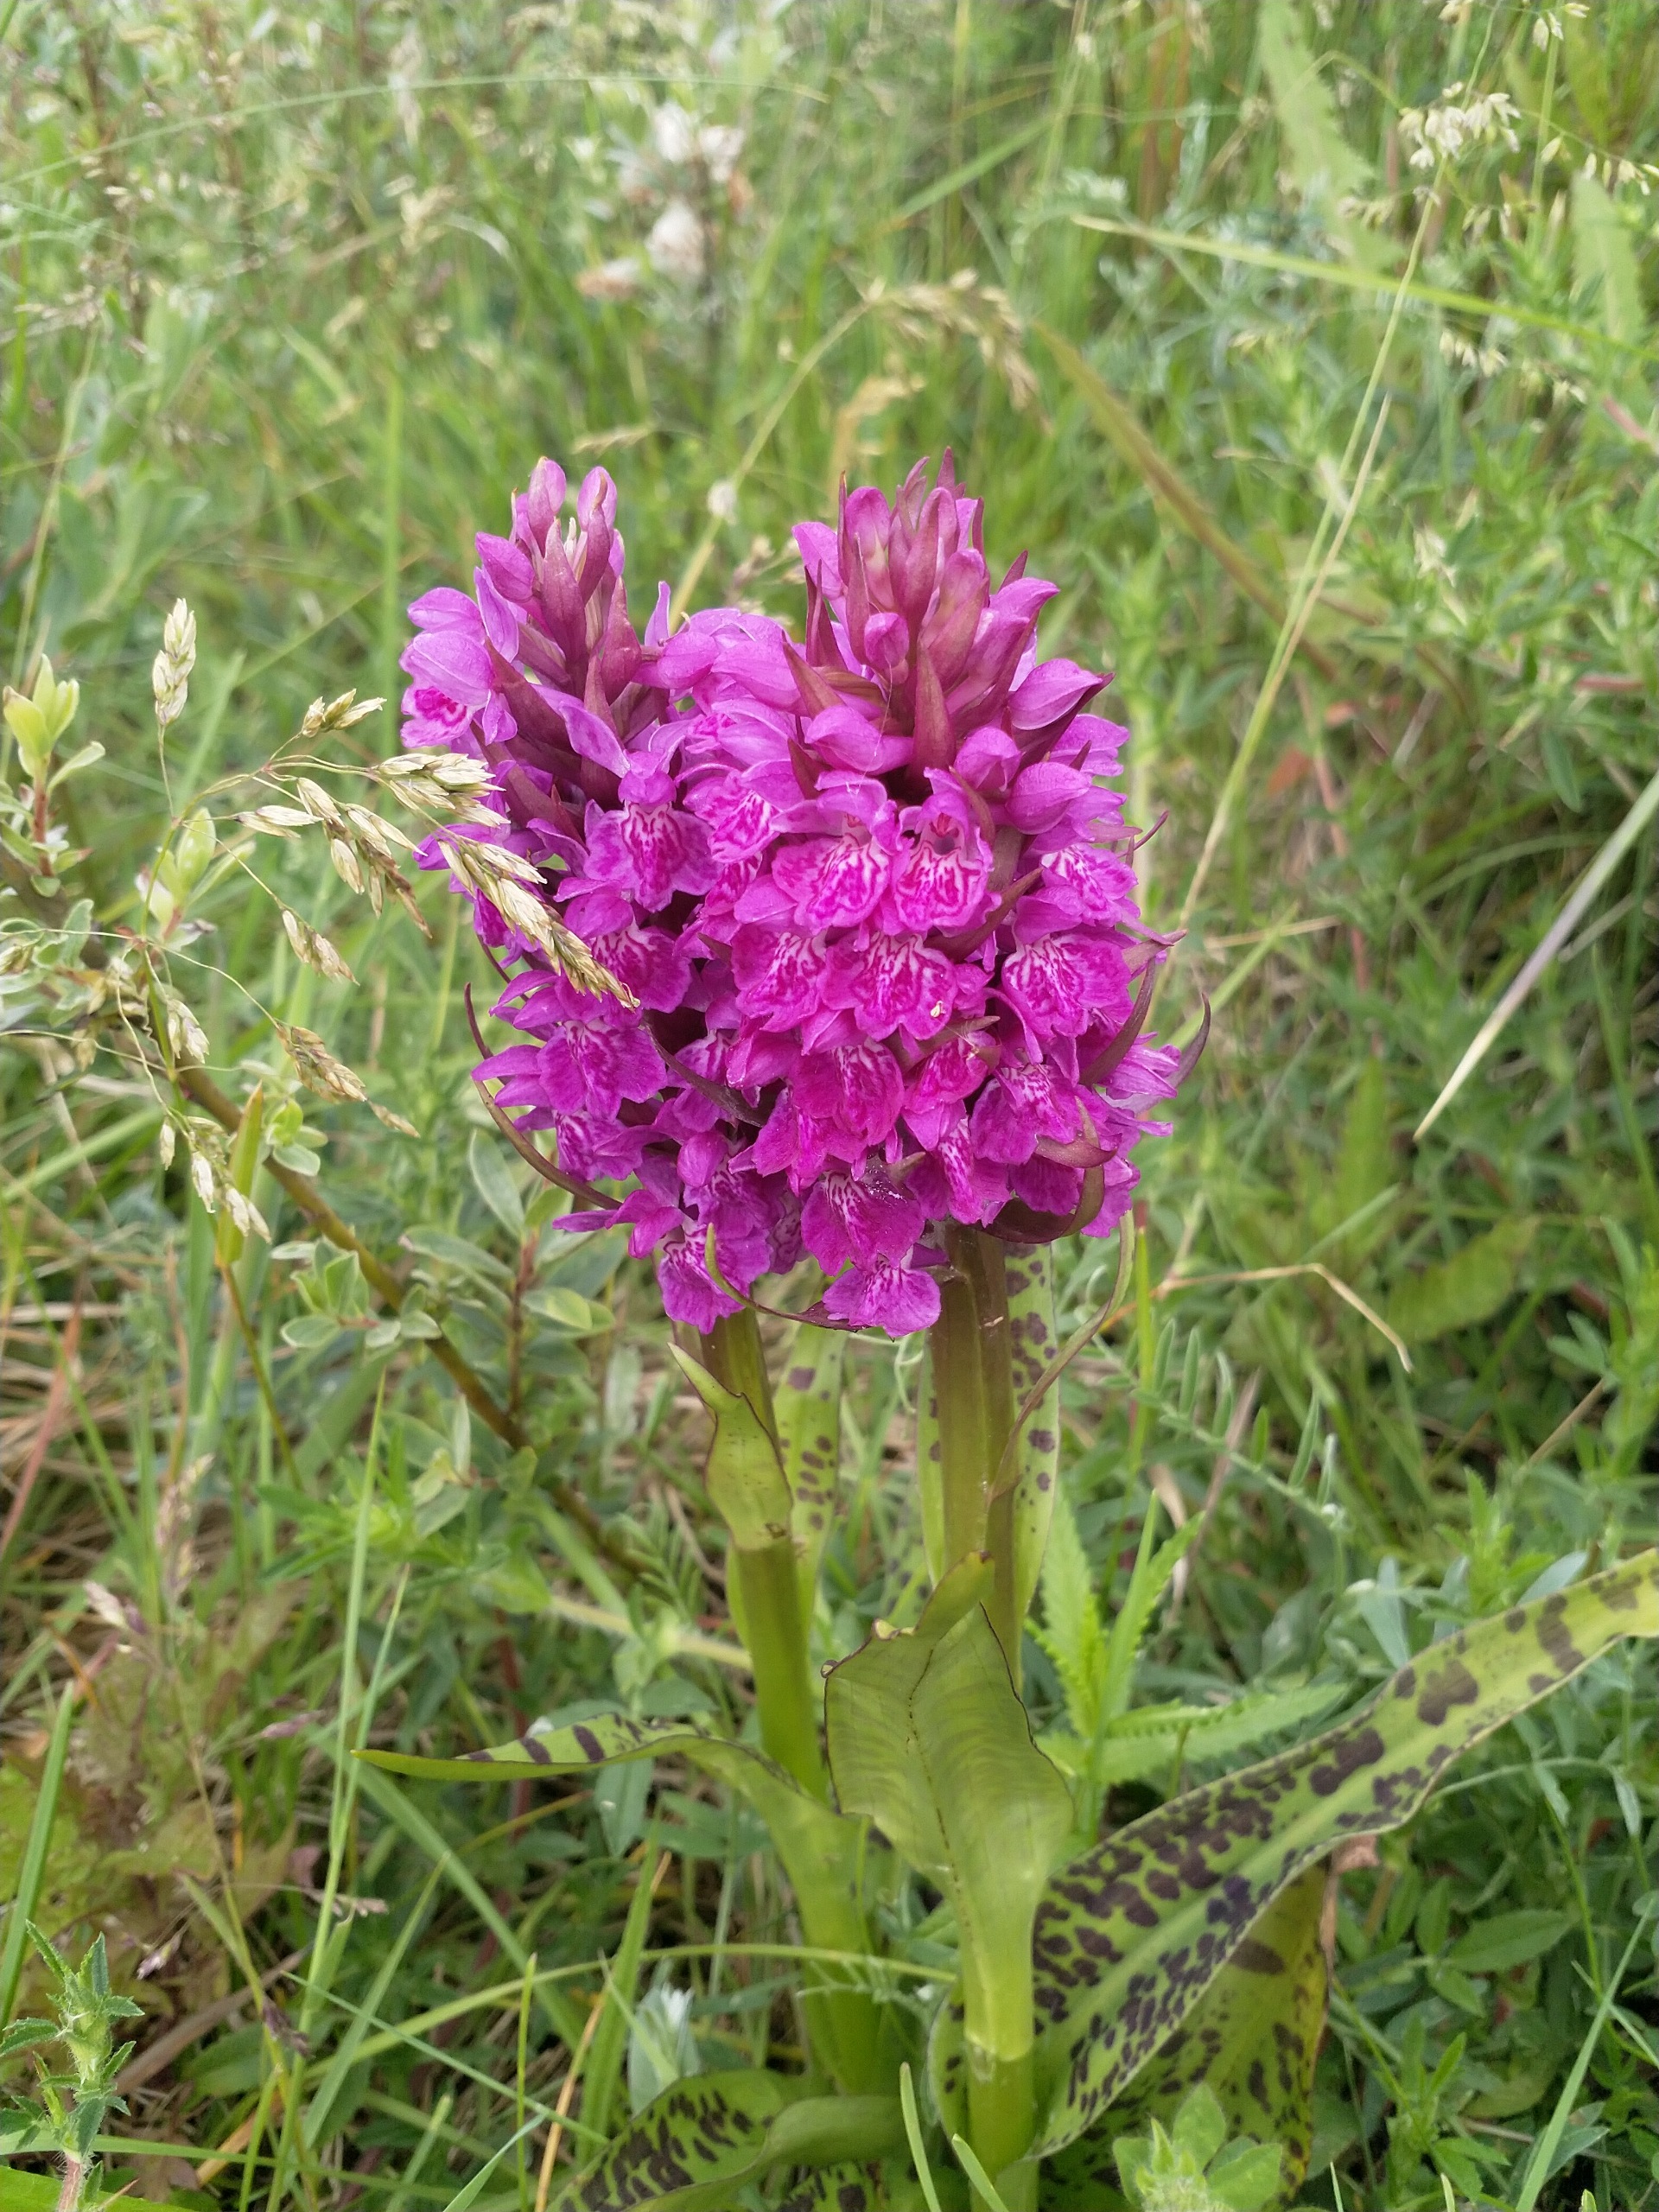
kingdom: Plantae
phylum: Tracheophyta
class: Liliopsida
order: Asparagales
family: Orchidaceae
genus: Dactylorhiza
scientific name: Dactylorhiza majalis
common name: Maj-gøgeurt
